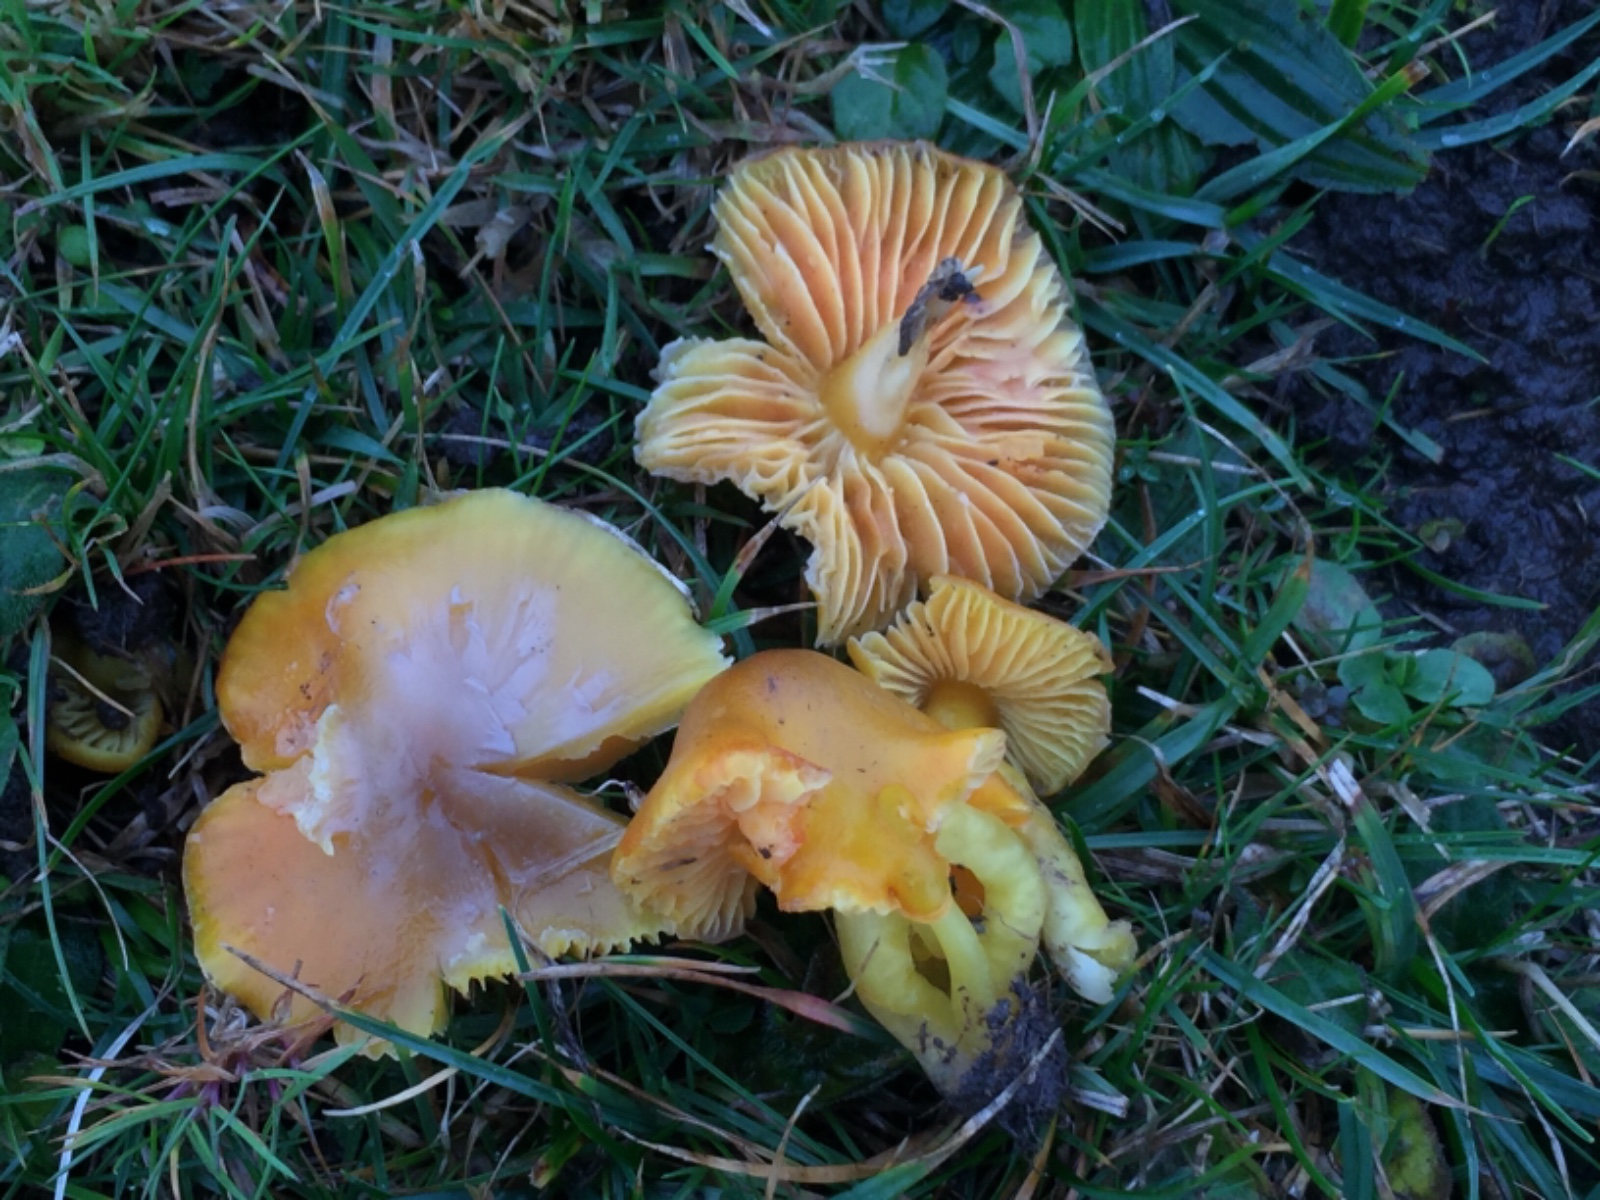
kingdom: Fungi
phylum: Basidiomycota
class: Agaricomycetes
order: Agaricales
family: Hygrophoraceae
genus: Hygrocybe
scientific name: Hygrocybe quieta
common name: tæge-vokshat
